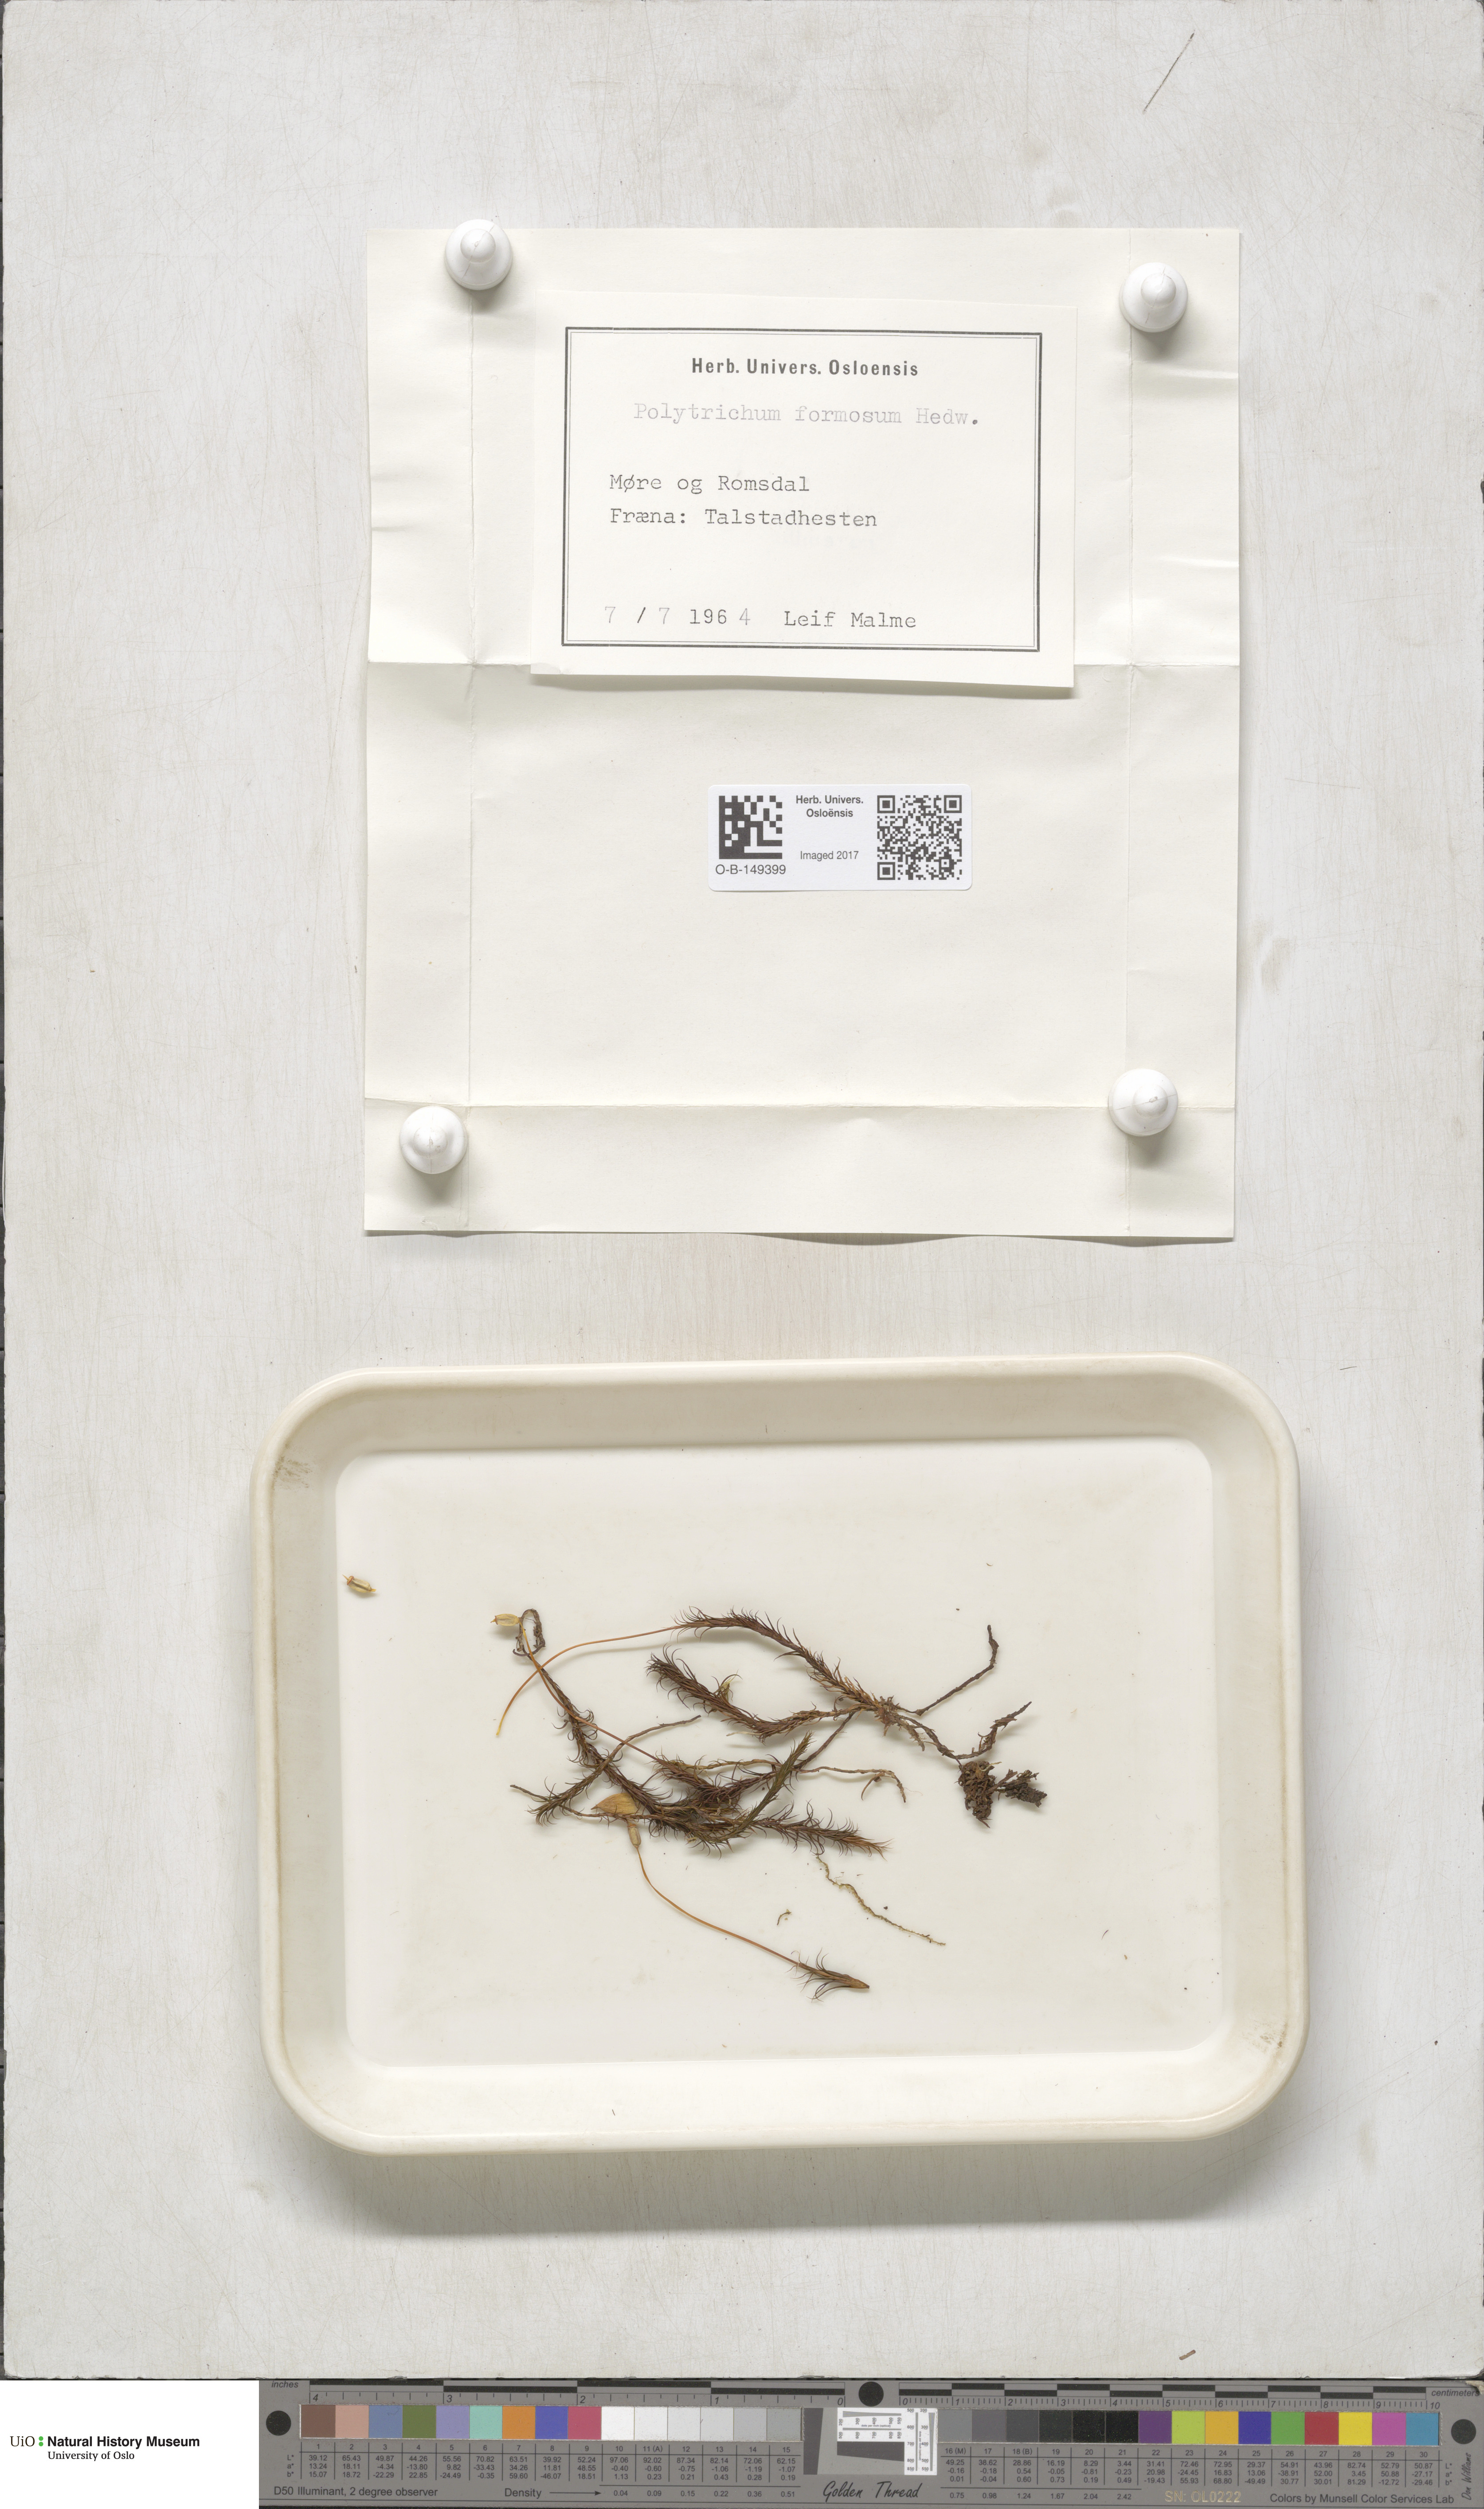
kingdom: Plantae
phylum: Bryophyta
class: Polytrichopsida
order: Polytrichales
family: Polytrichaceae
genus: Polytrichum
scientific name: Polytrichum formosum
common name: Bank haircap moss
